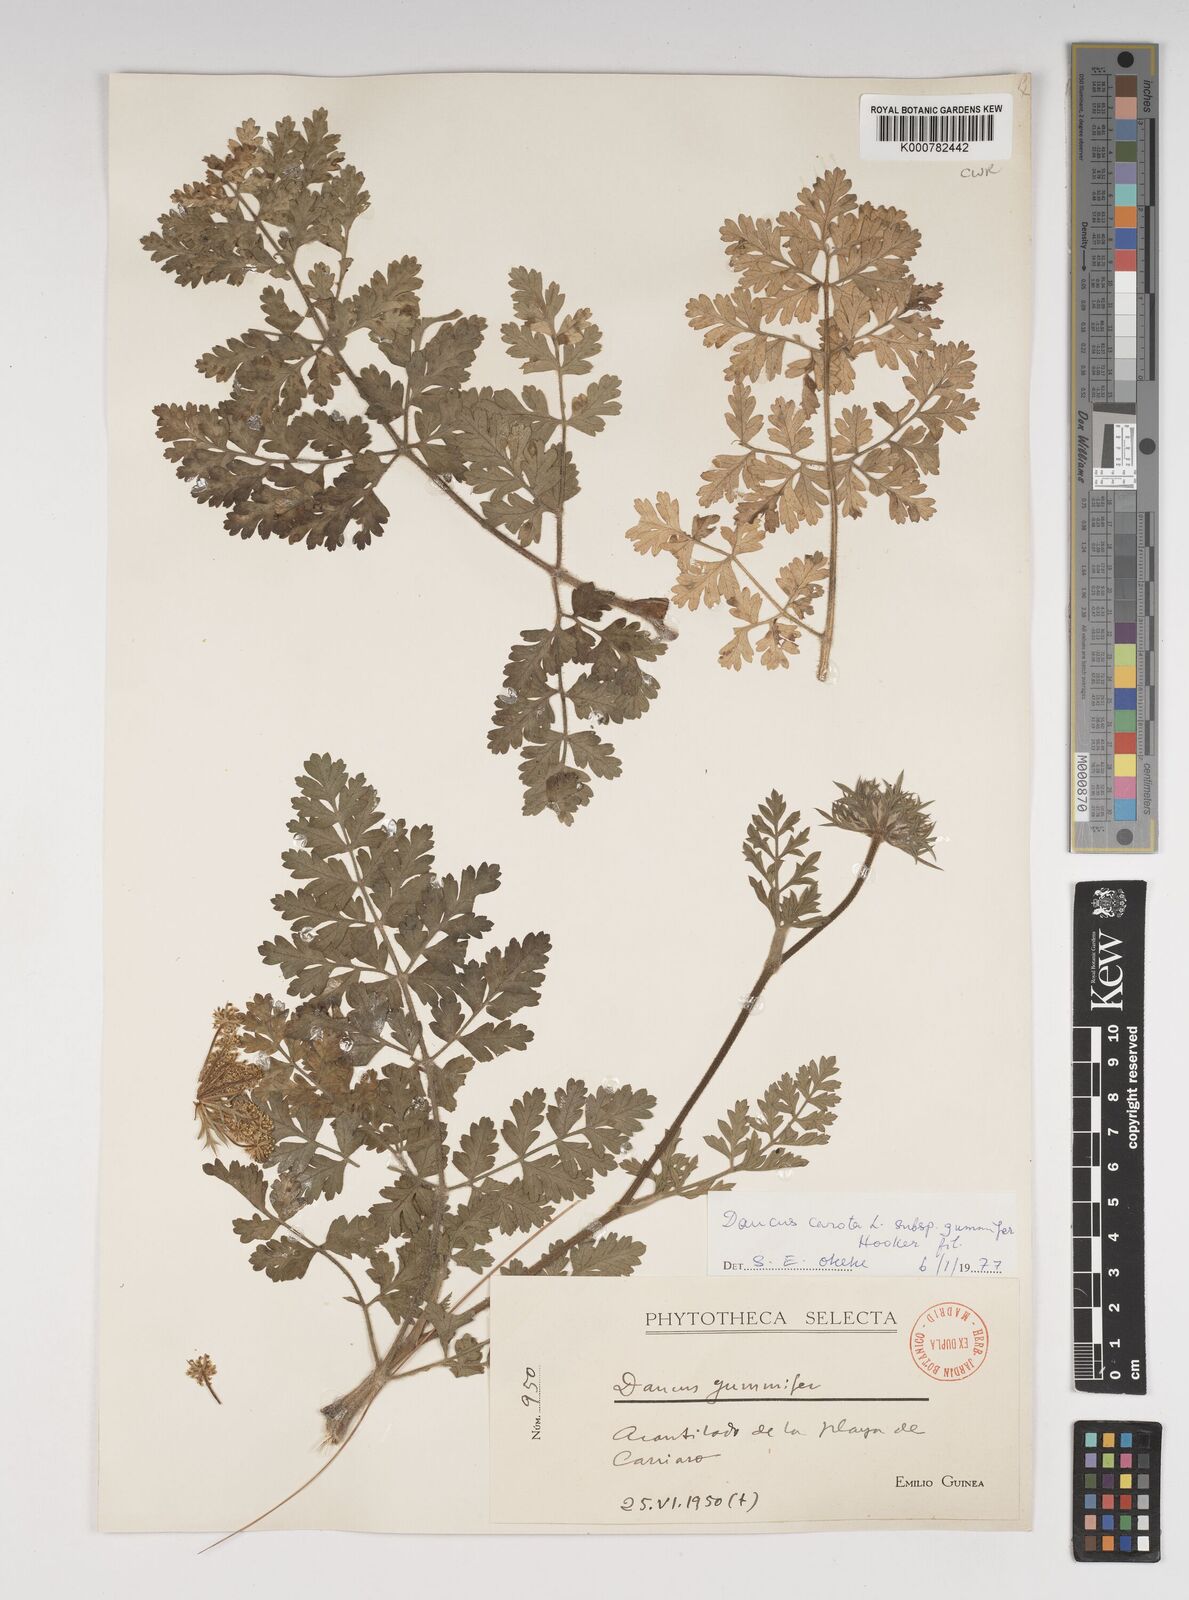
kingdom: Plantae
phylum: Tracheophyta
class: Magnoliopsida
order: Apiales
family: Apiaceae
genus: Daucus
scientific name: Daucus carota
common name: Wild carrot
